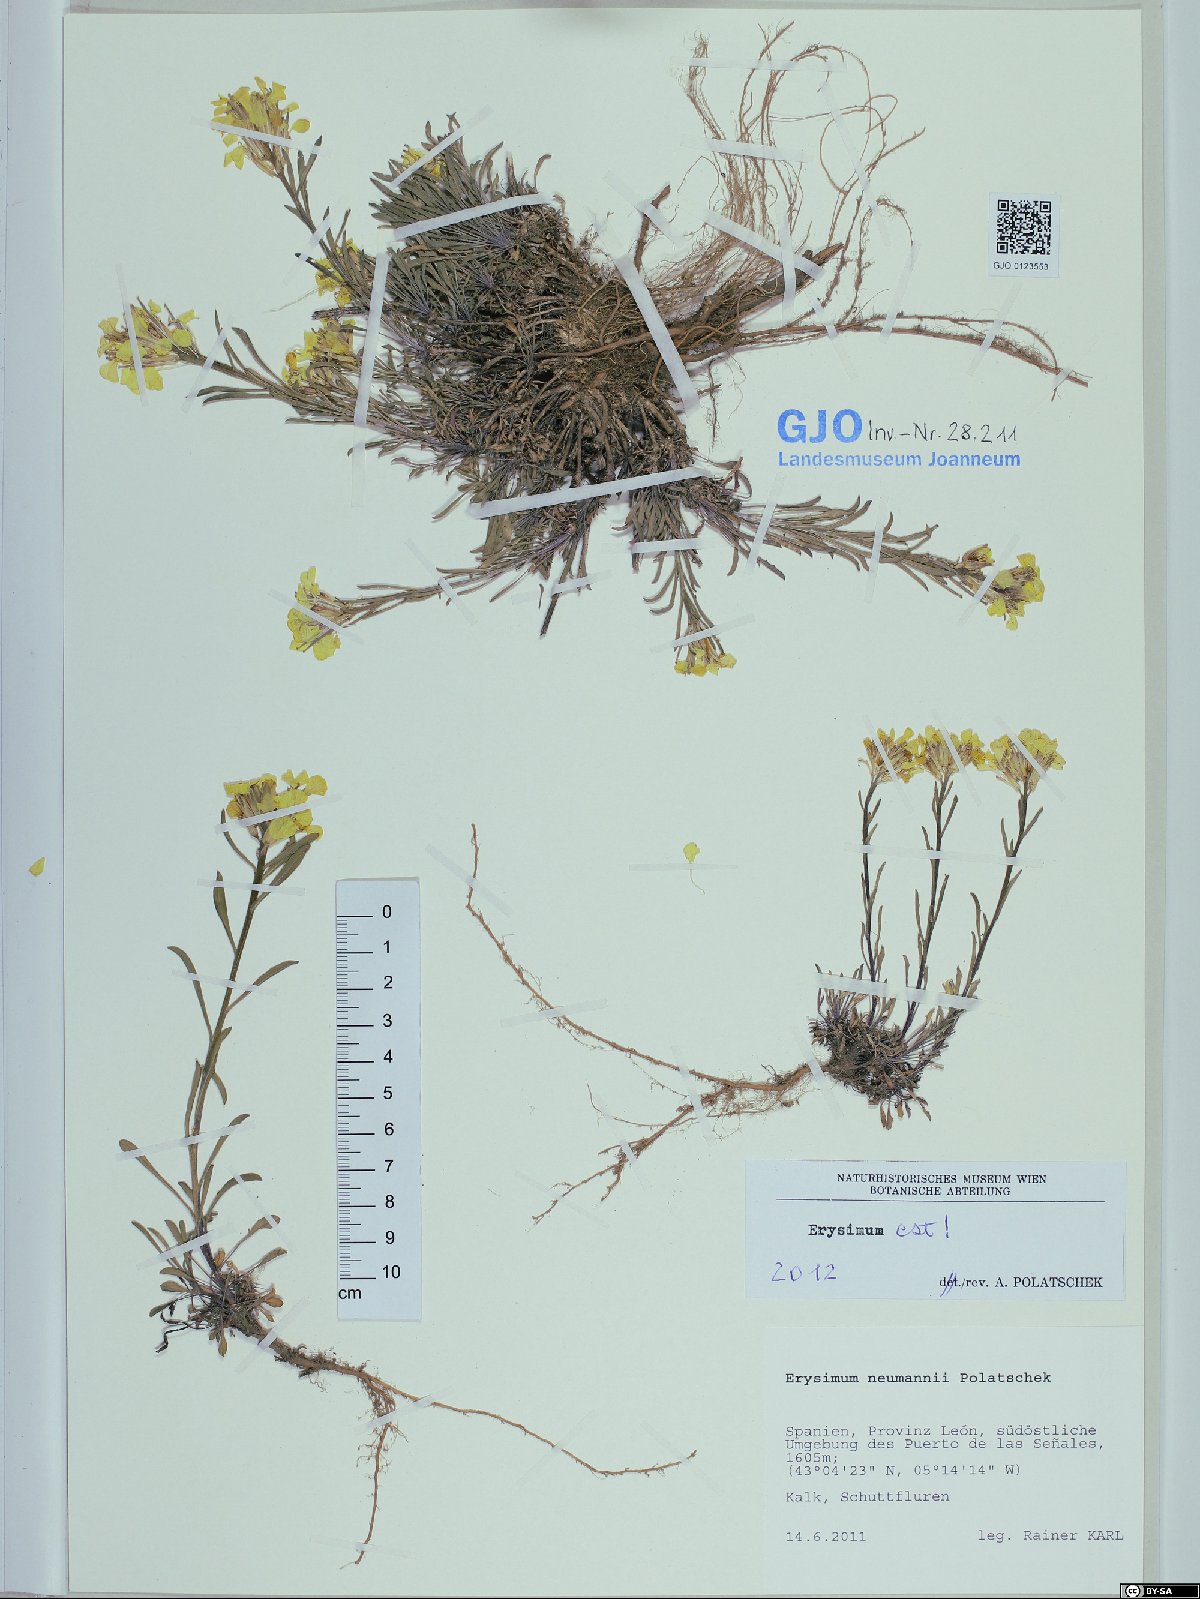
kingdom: Plantae
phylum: Tracheophyta
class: Magnoliopsida
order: Brassicales
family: Brassicaceae
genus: Erysimum
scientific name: Erysimum duriaei
